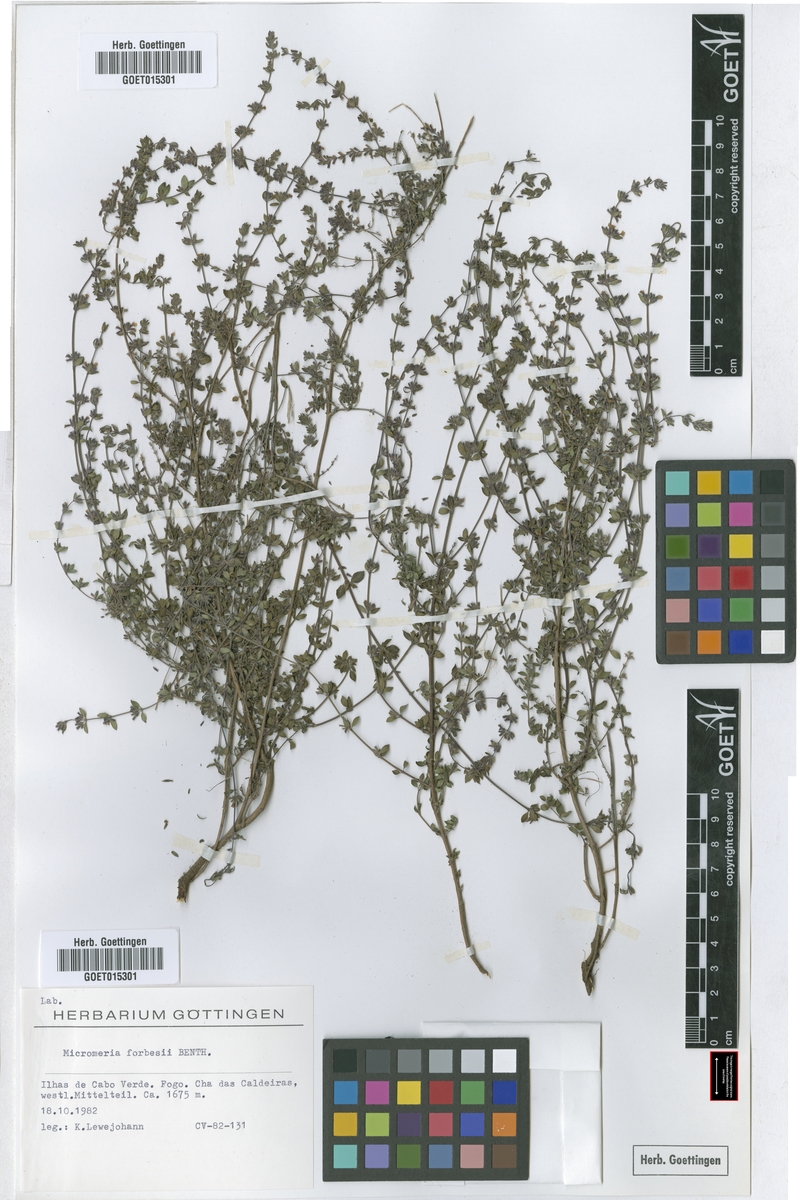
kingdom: Plantae
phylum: Tracheophyta
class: Magnoliopsida
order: Lamiales
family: Lamiaceae
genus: Micromeria
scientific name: Micromeria forbesii
